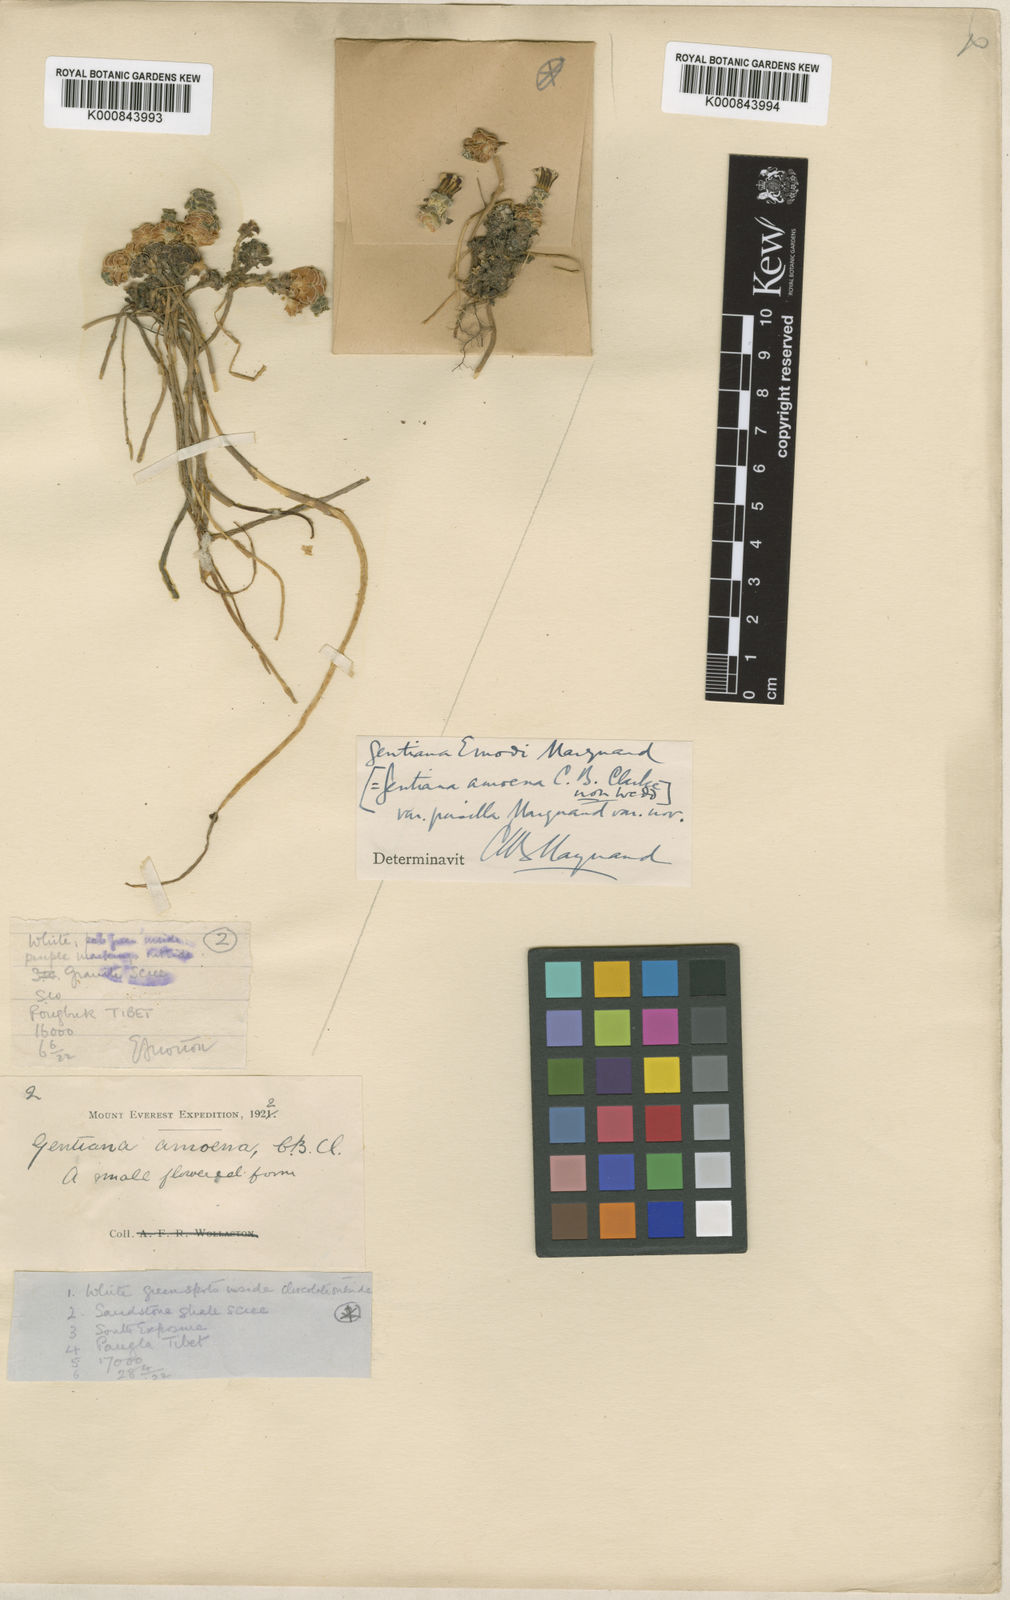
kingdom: Plantae
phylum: Tracheophyta
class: Magnoliopsida
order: Gentianales
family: Gentianaceae
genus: Gentiana
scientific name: Gentiana urnula
